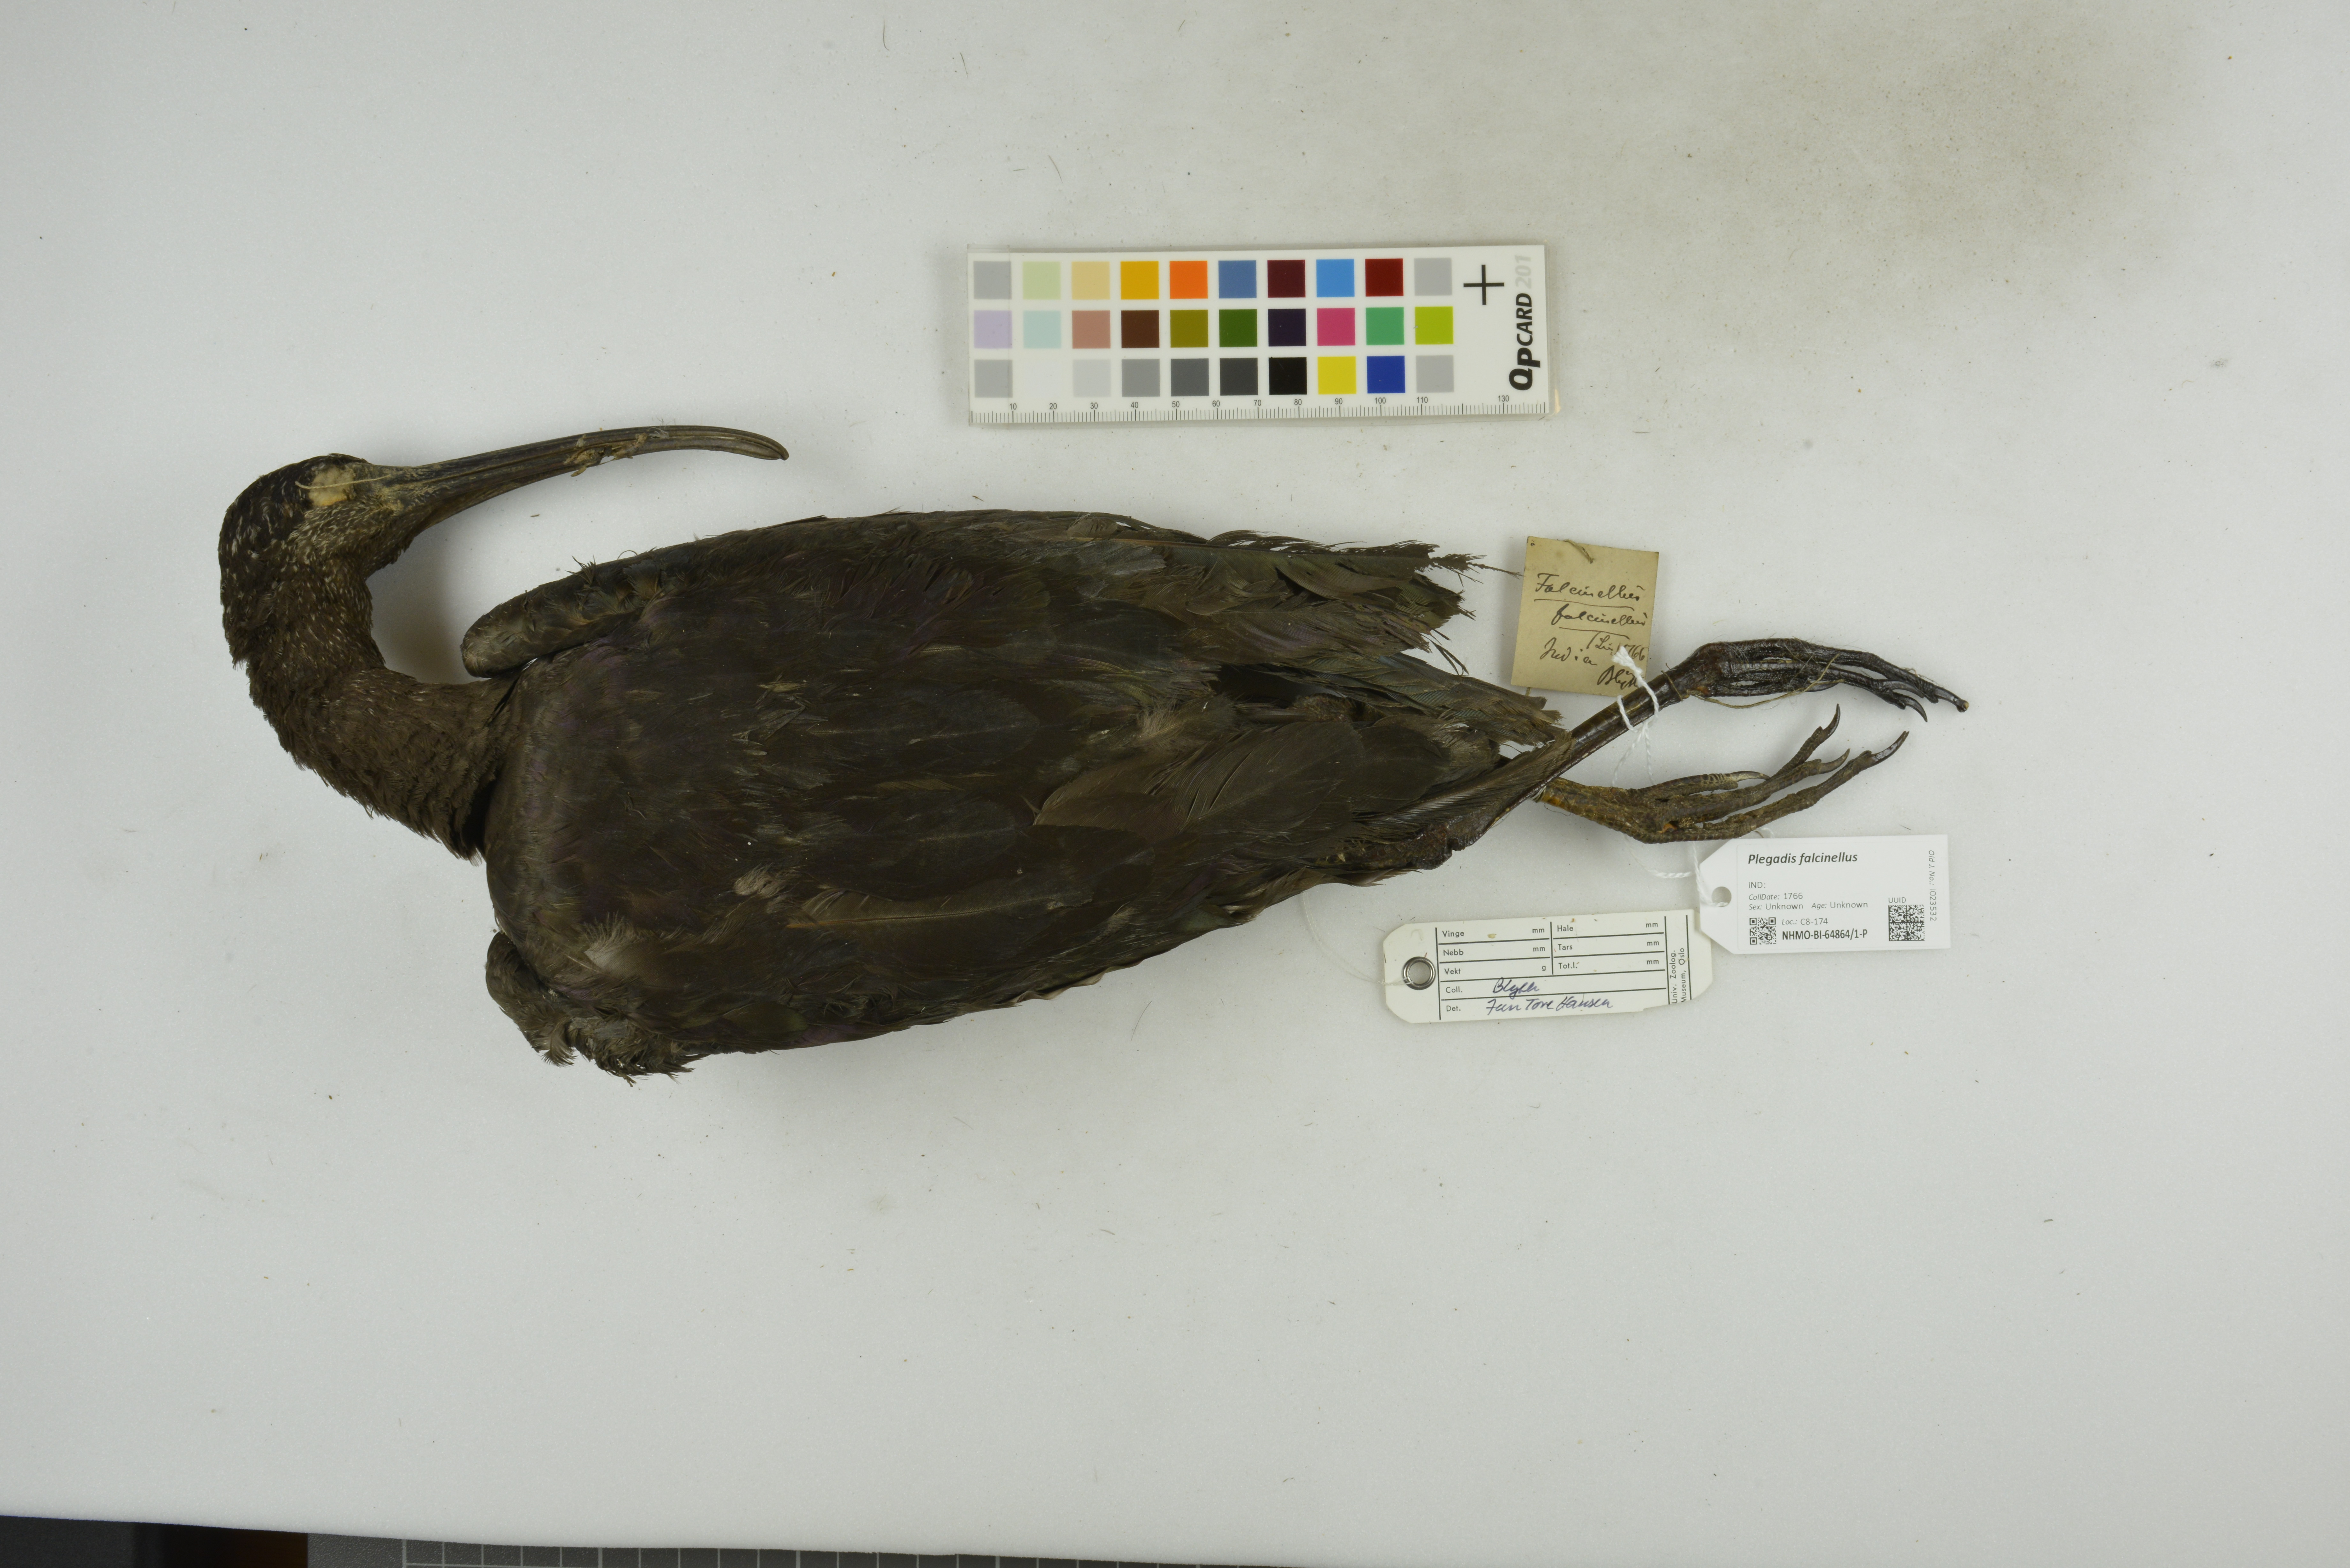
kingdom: Animalia
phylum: Chordata
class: Aves
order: Pelecaniformes
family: Threskiornithidae
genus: Plegadis
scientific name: Plegadis falcinellus
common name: Glossy ibis
